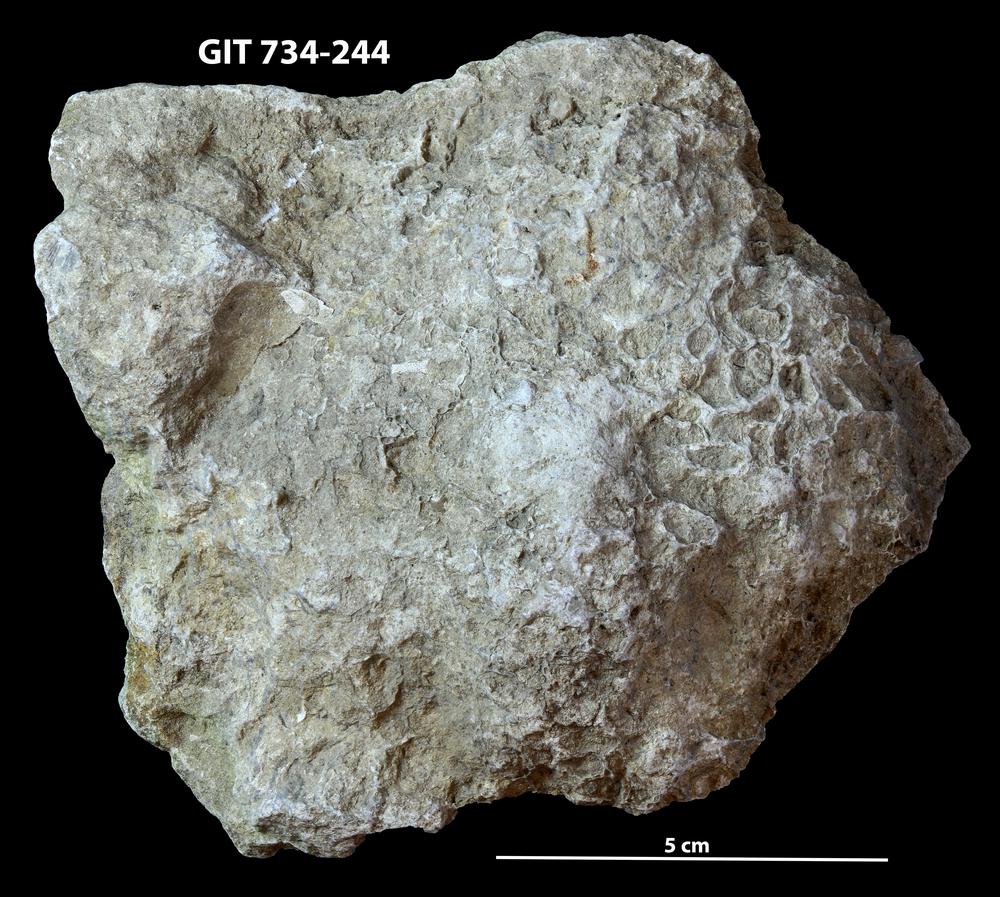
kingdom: Animalia
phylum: Cnidaria
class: Anthozoa
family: Cateniporidae
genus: Catenipora
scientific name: Catenipora
